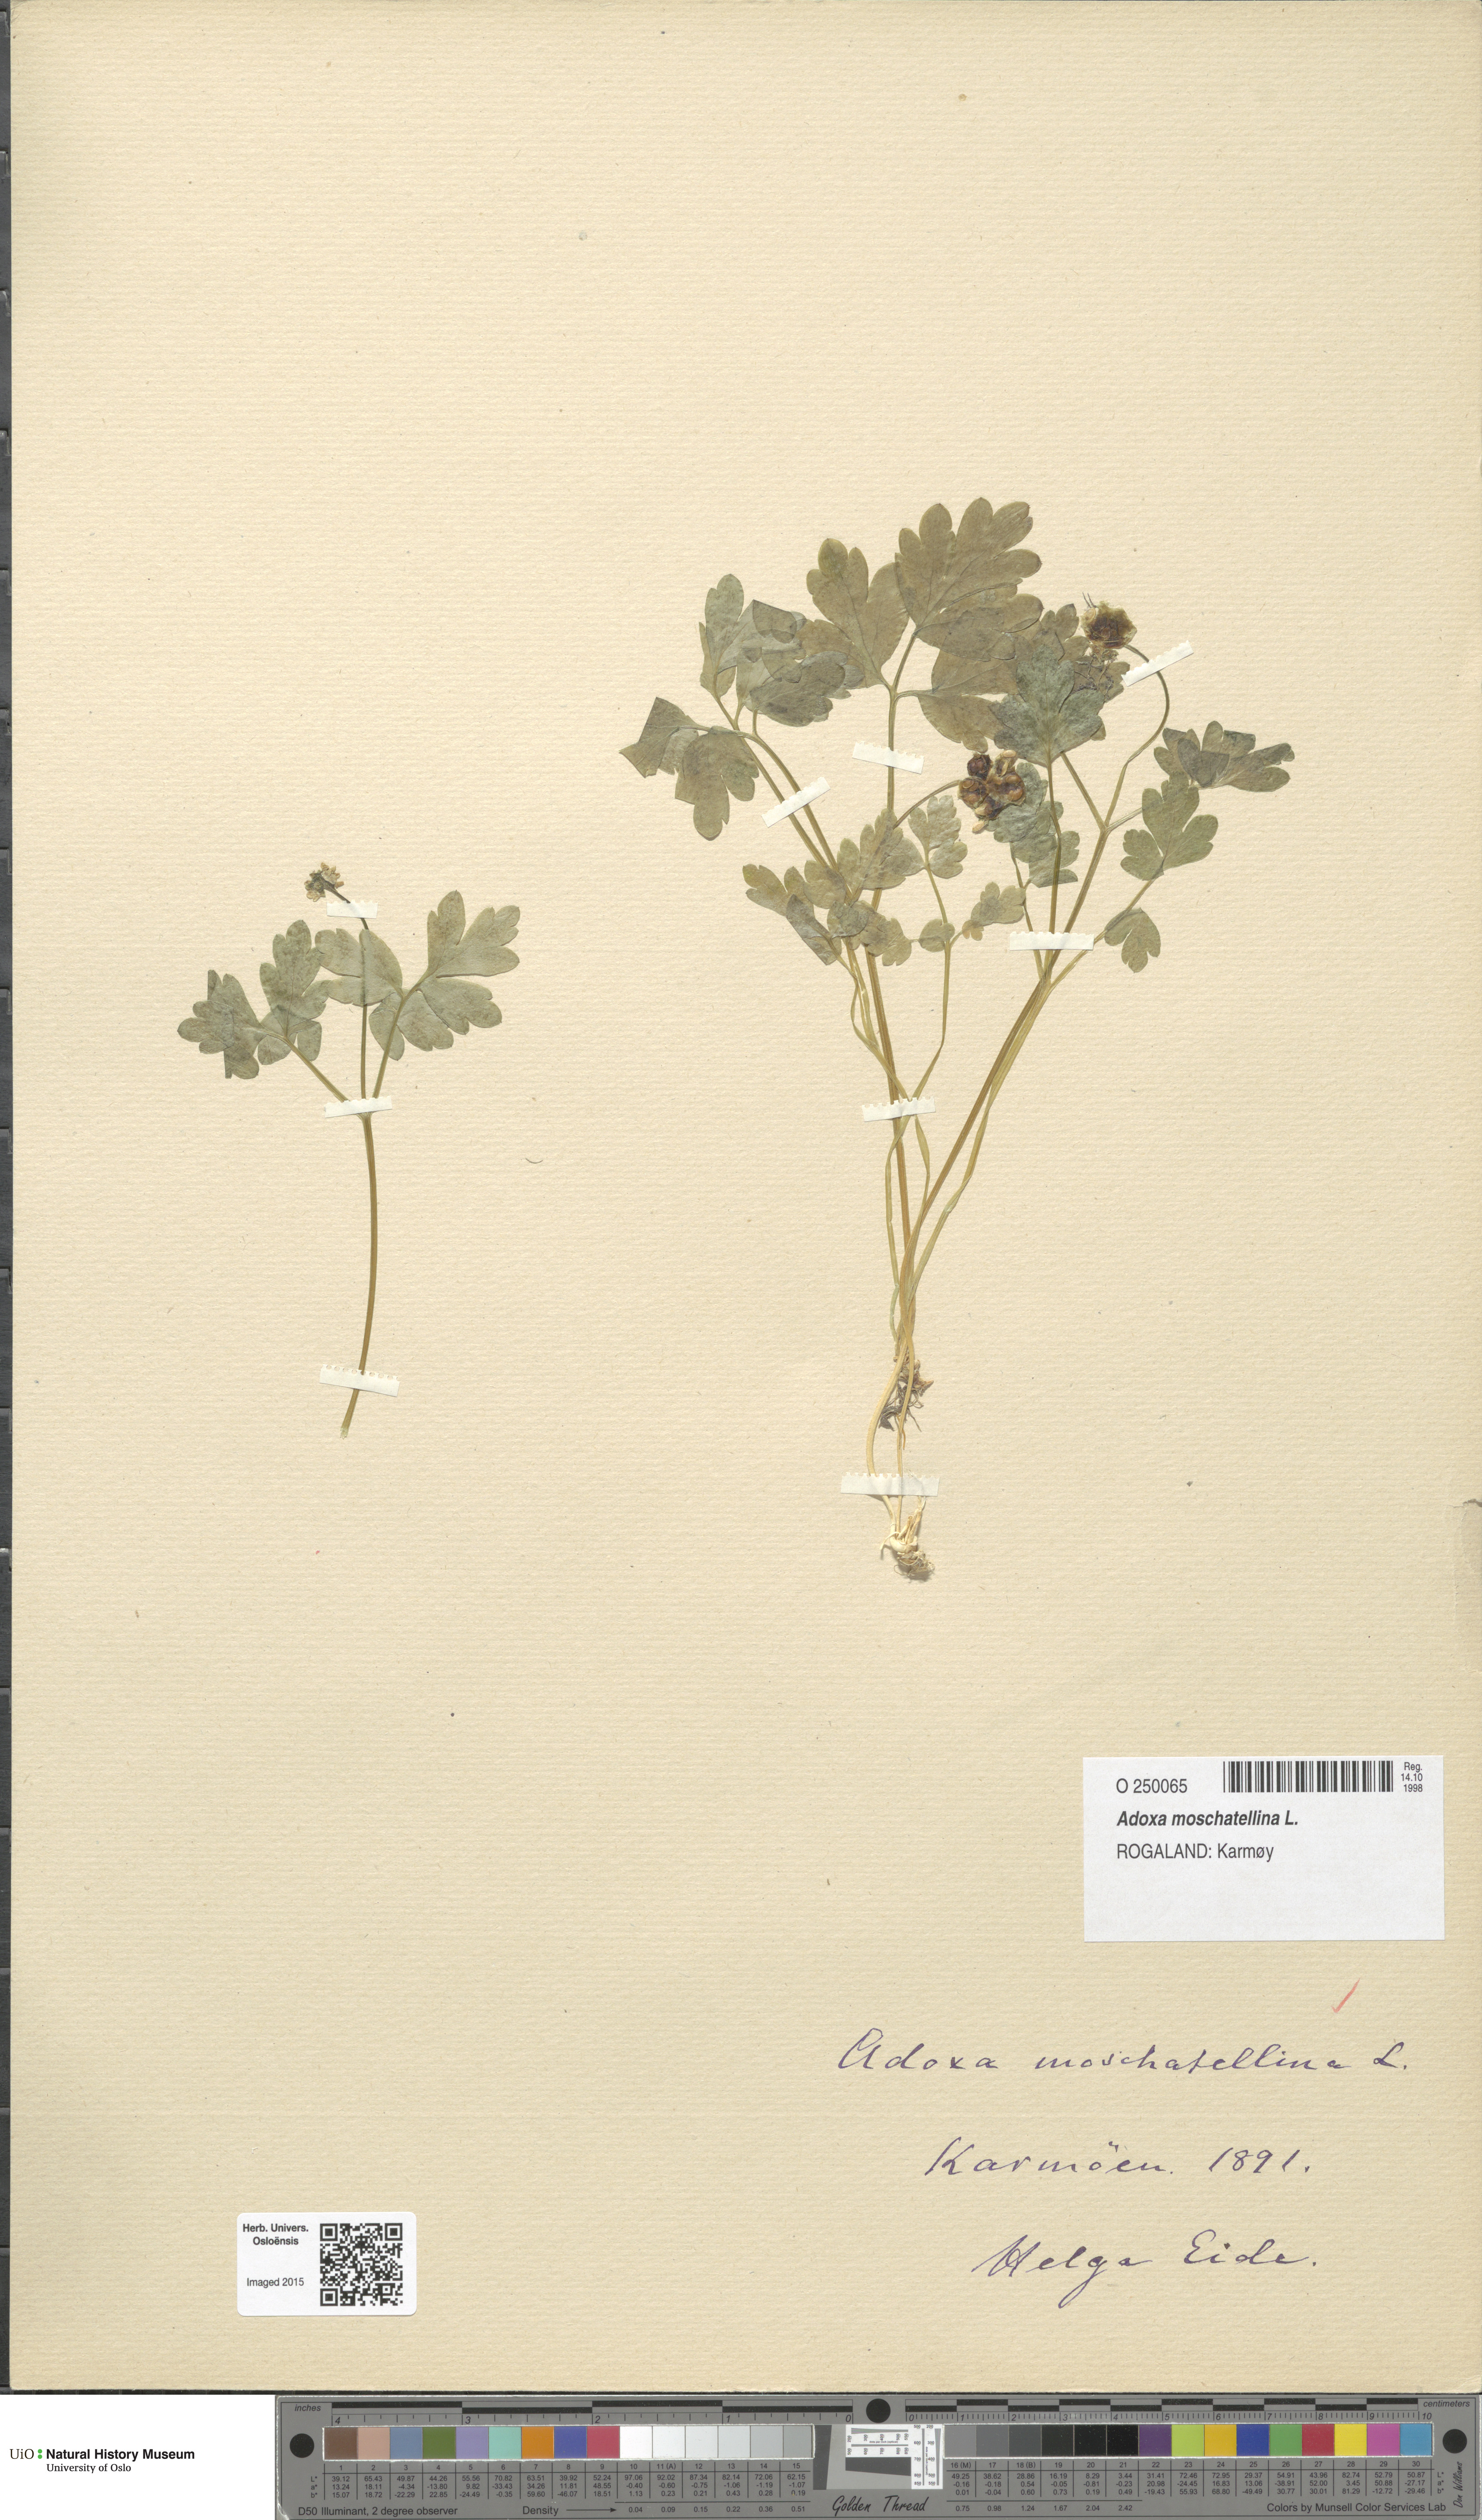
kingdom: Plantae
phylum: Tracheophyta
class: Magnoliopsida
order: Dipsacales
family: Viburnaceae
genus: Adoxa
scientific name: Adoxa moschatellina
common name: Moschatel
